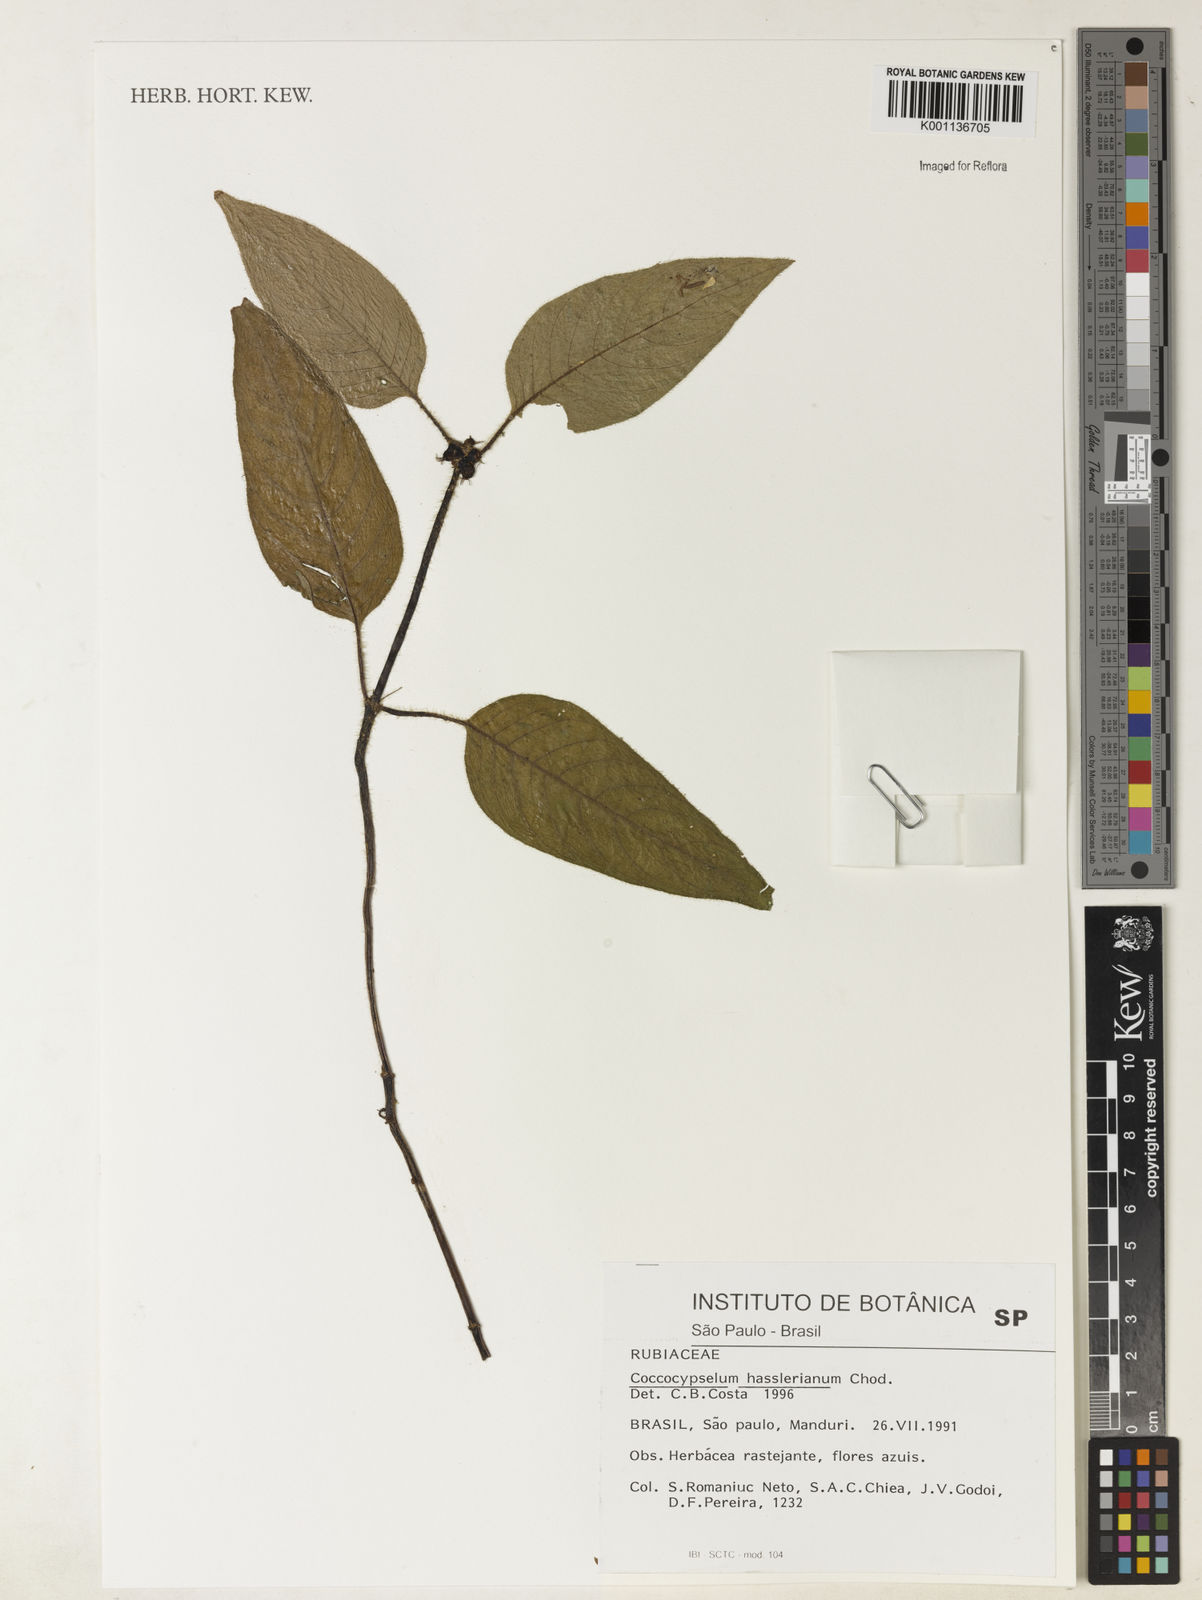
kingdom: Plantae
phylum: Tracheophyta
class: Magnoliopsida
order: Gentianales
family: Rubiaceae
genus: Coccocypselum
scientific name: Coccocypselum hasslerianum
